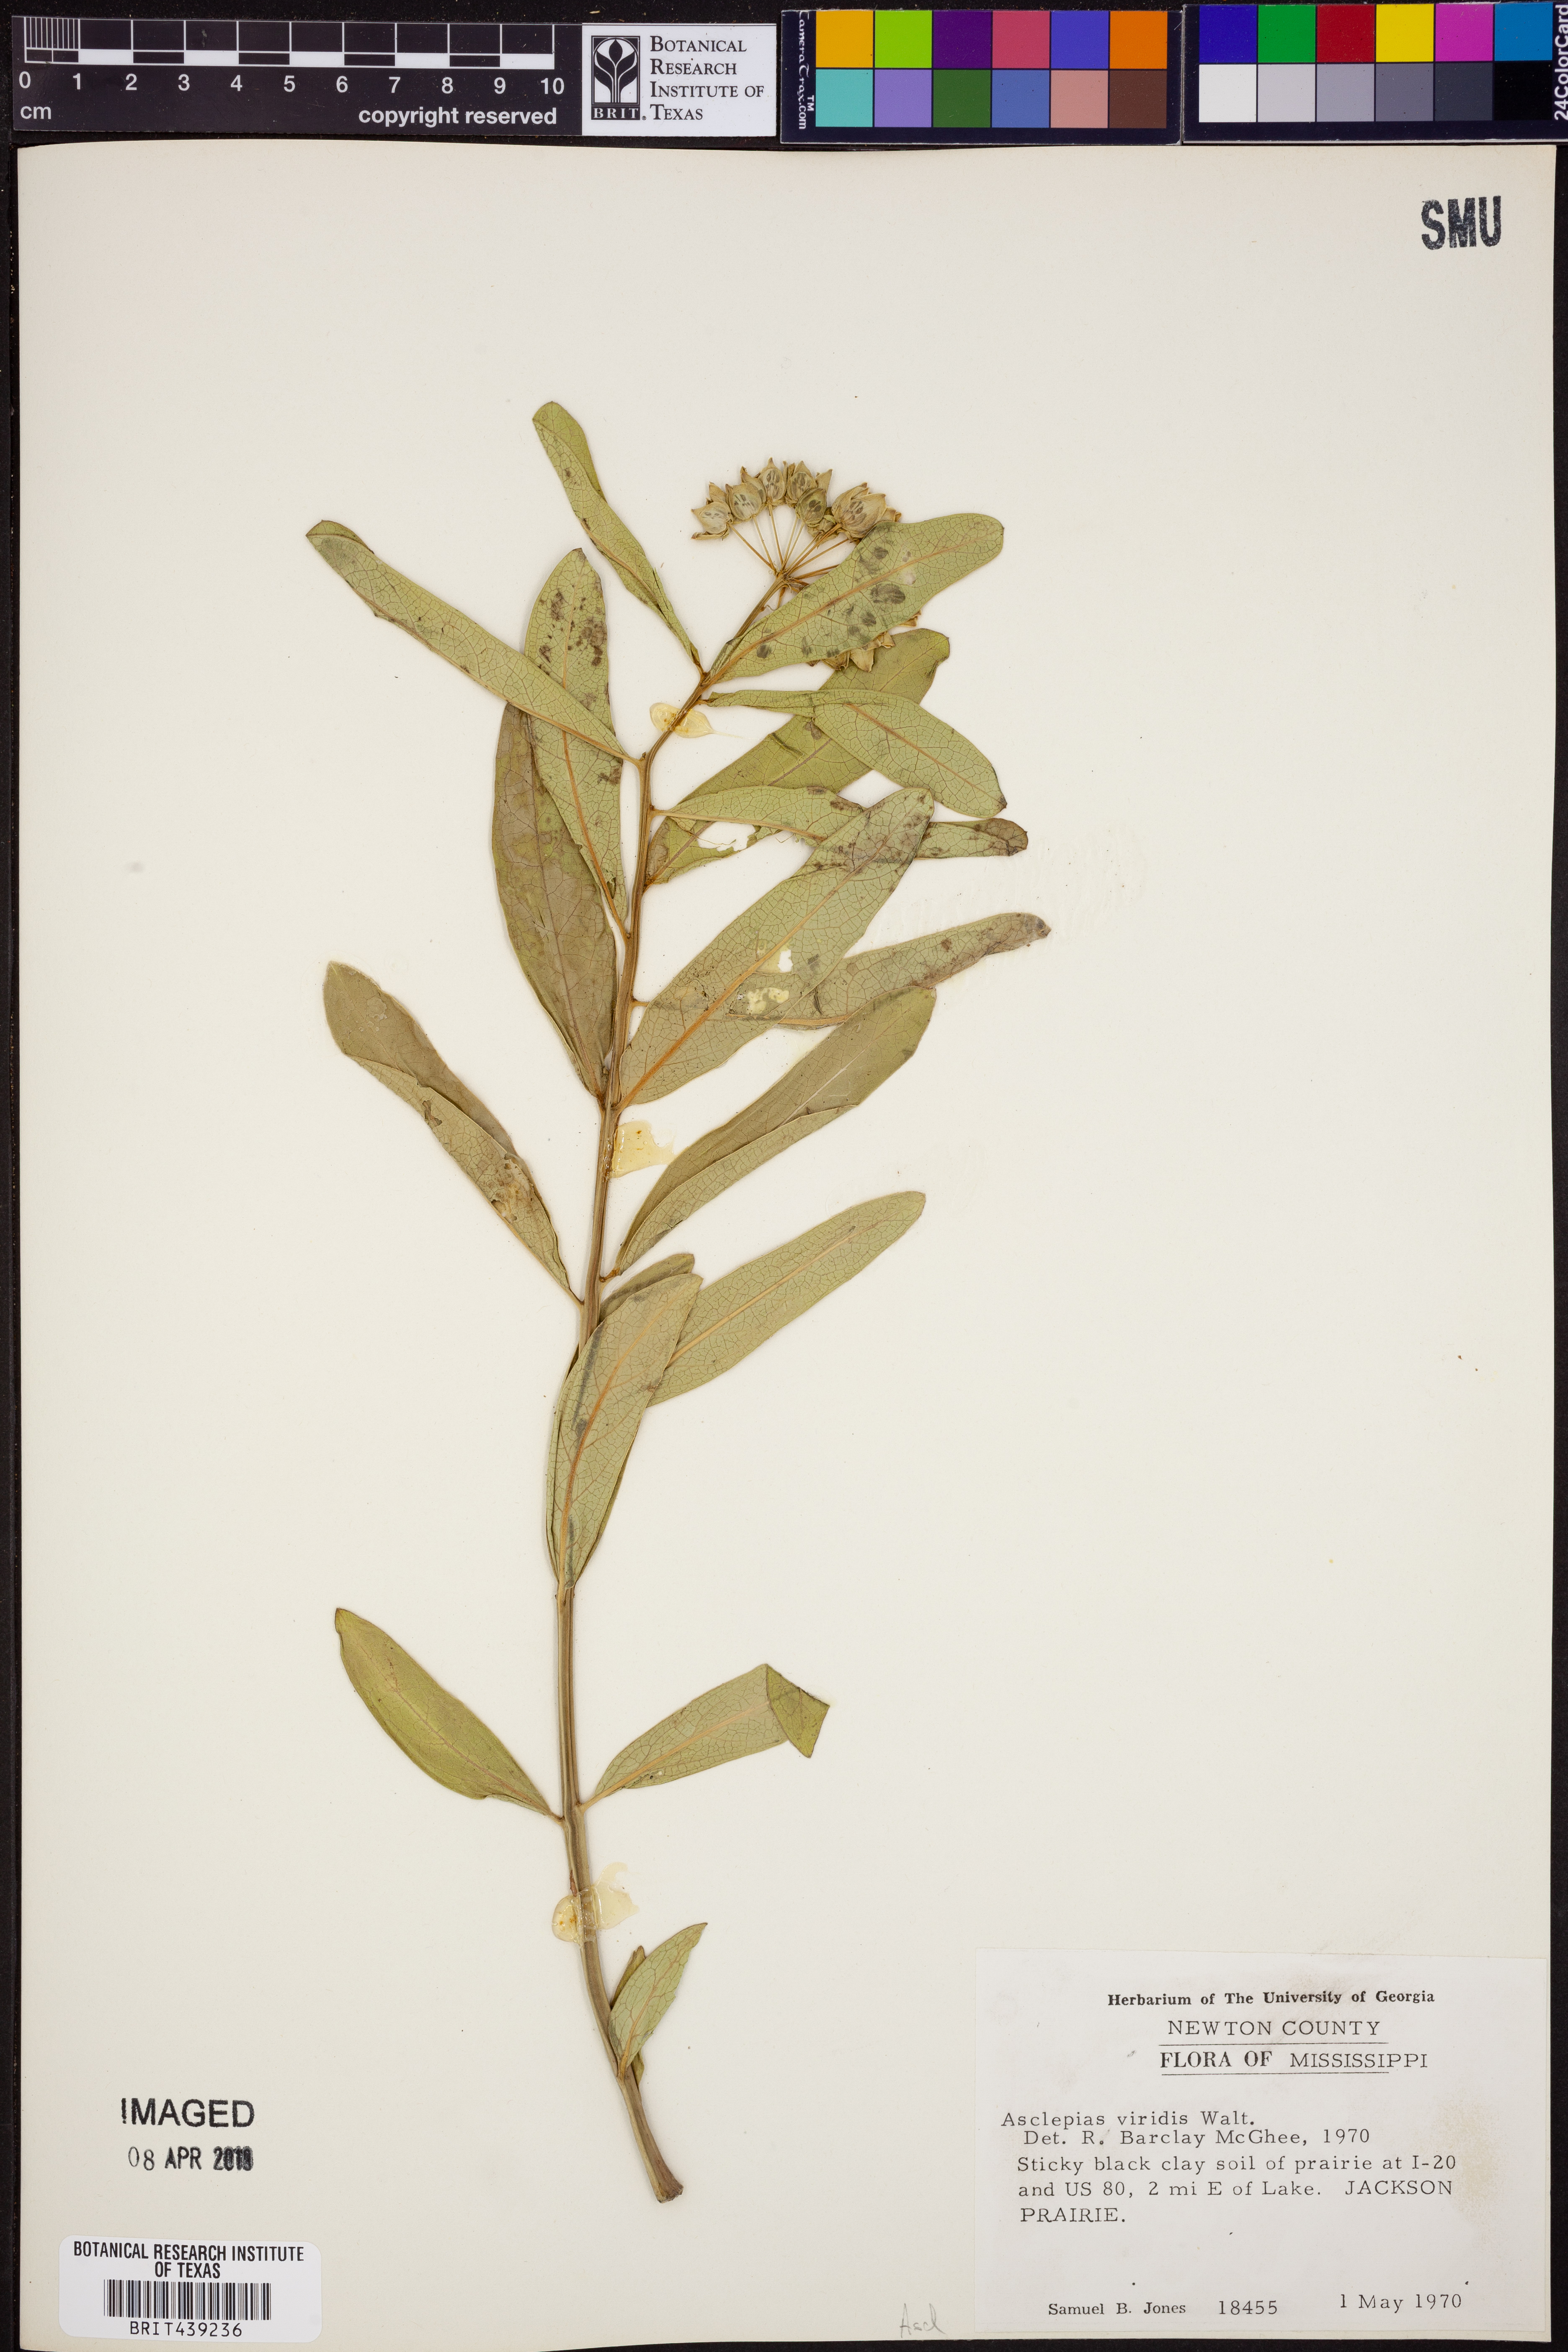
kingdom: Plantae
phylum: Tracheophyta
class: Magnoliopsida
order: Gentianales
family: Apocynaceae
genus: Asclepias
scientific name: Asclepias viridis
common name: Antelope-horns
